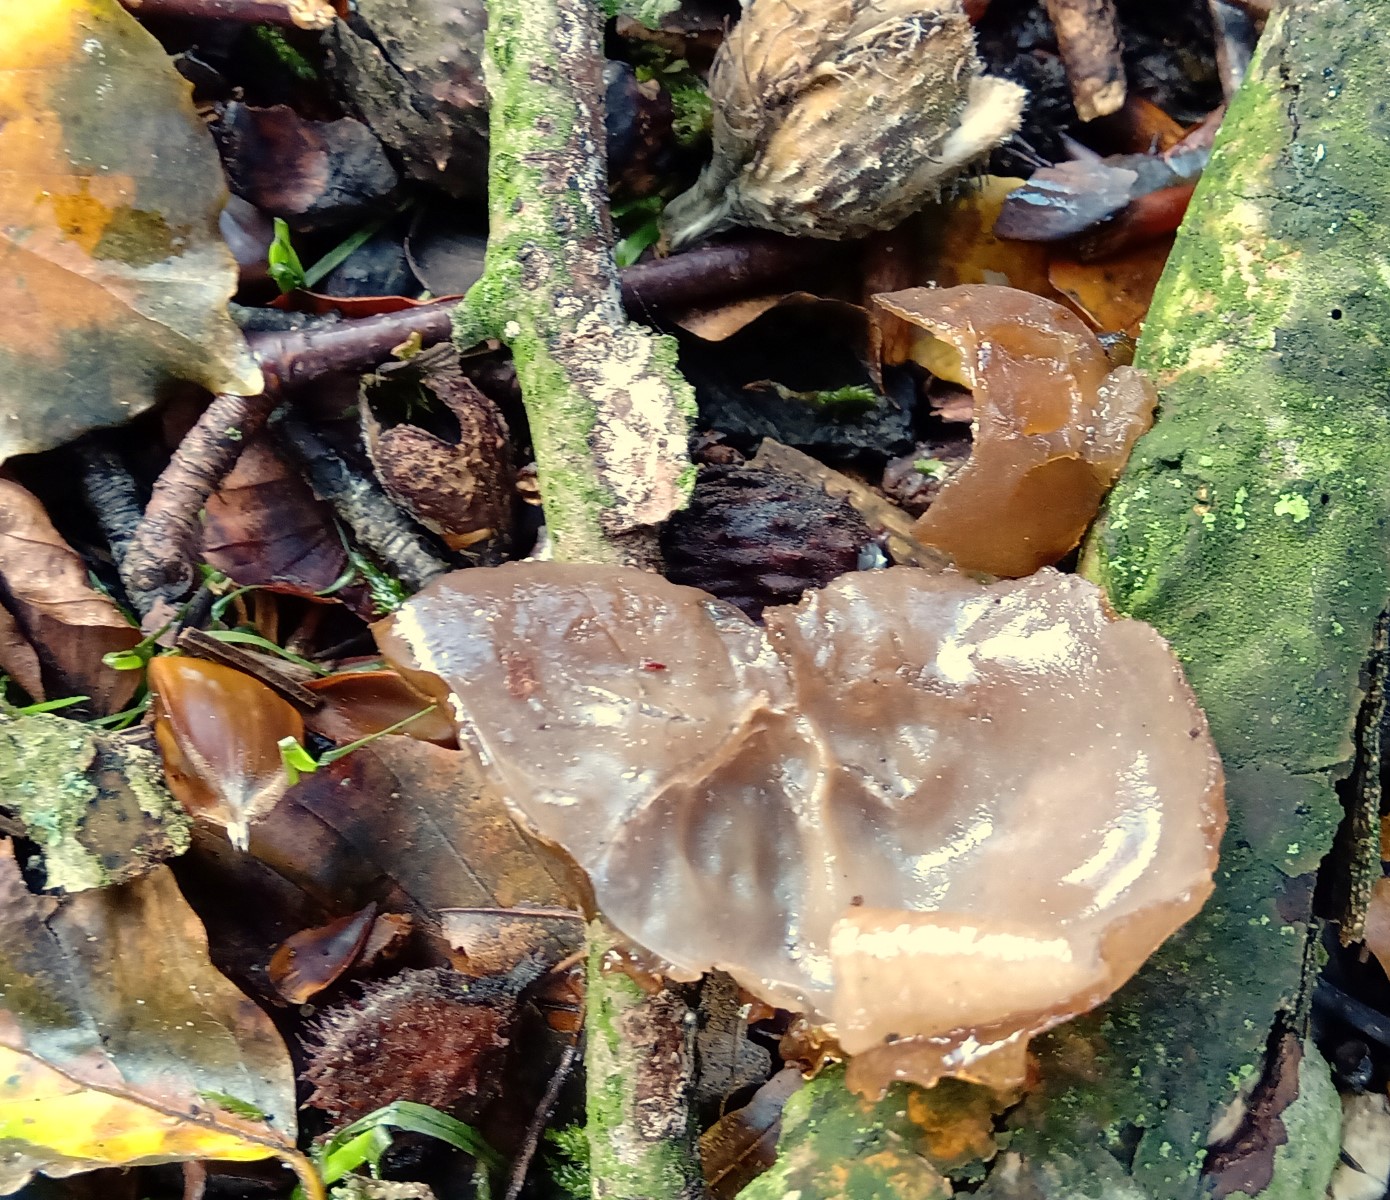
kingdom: Fungi
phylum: Basidiomycota
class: Agaricomycetes
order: Auriculariales
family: Auriculariaceae
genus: Auricularia
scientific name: Auricularia auricula-judae
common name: almindelig judasøre
